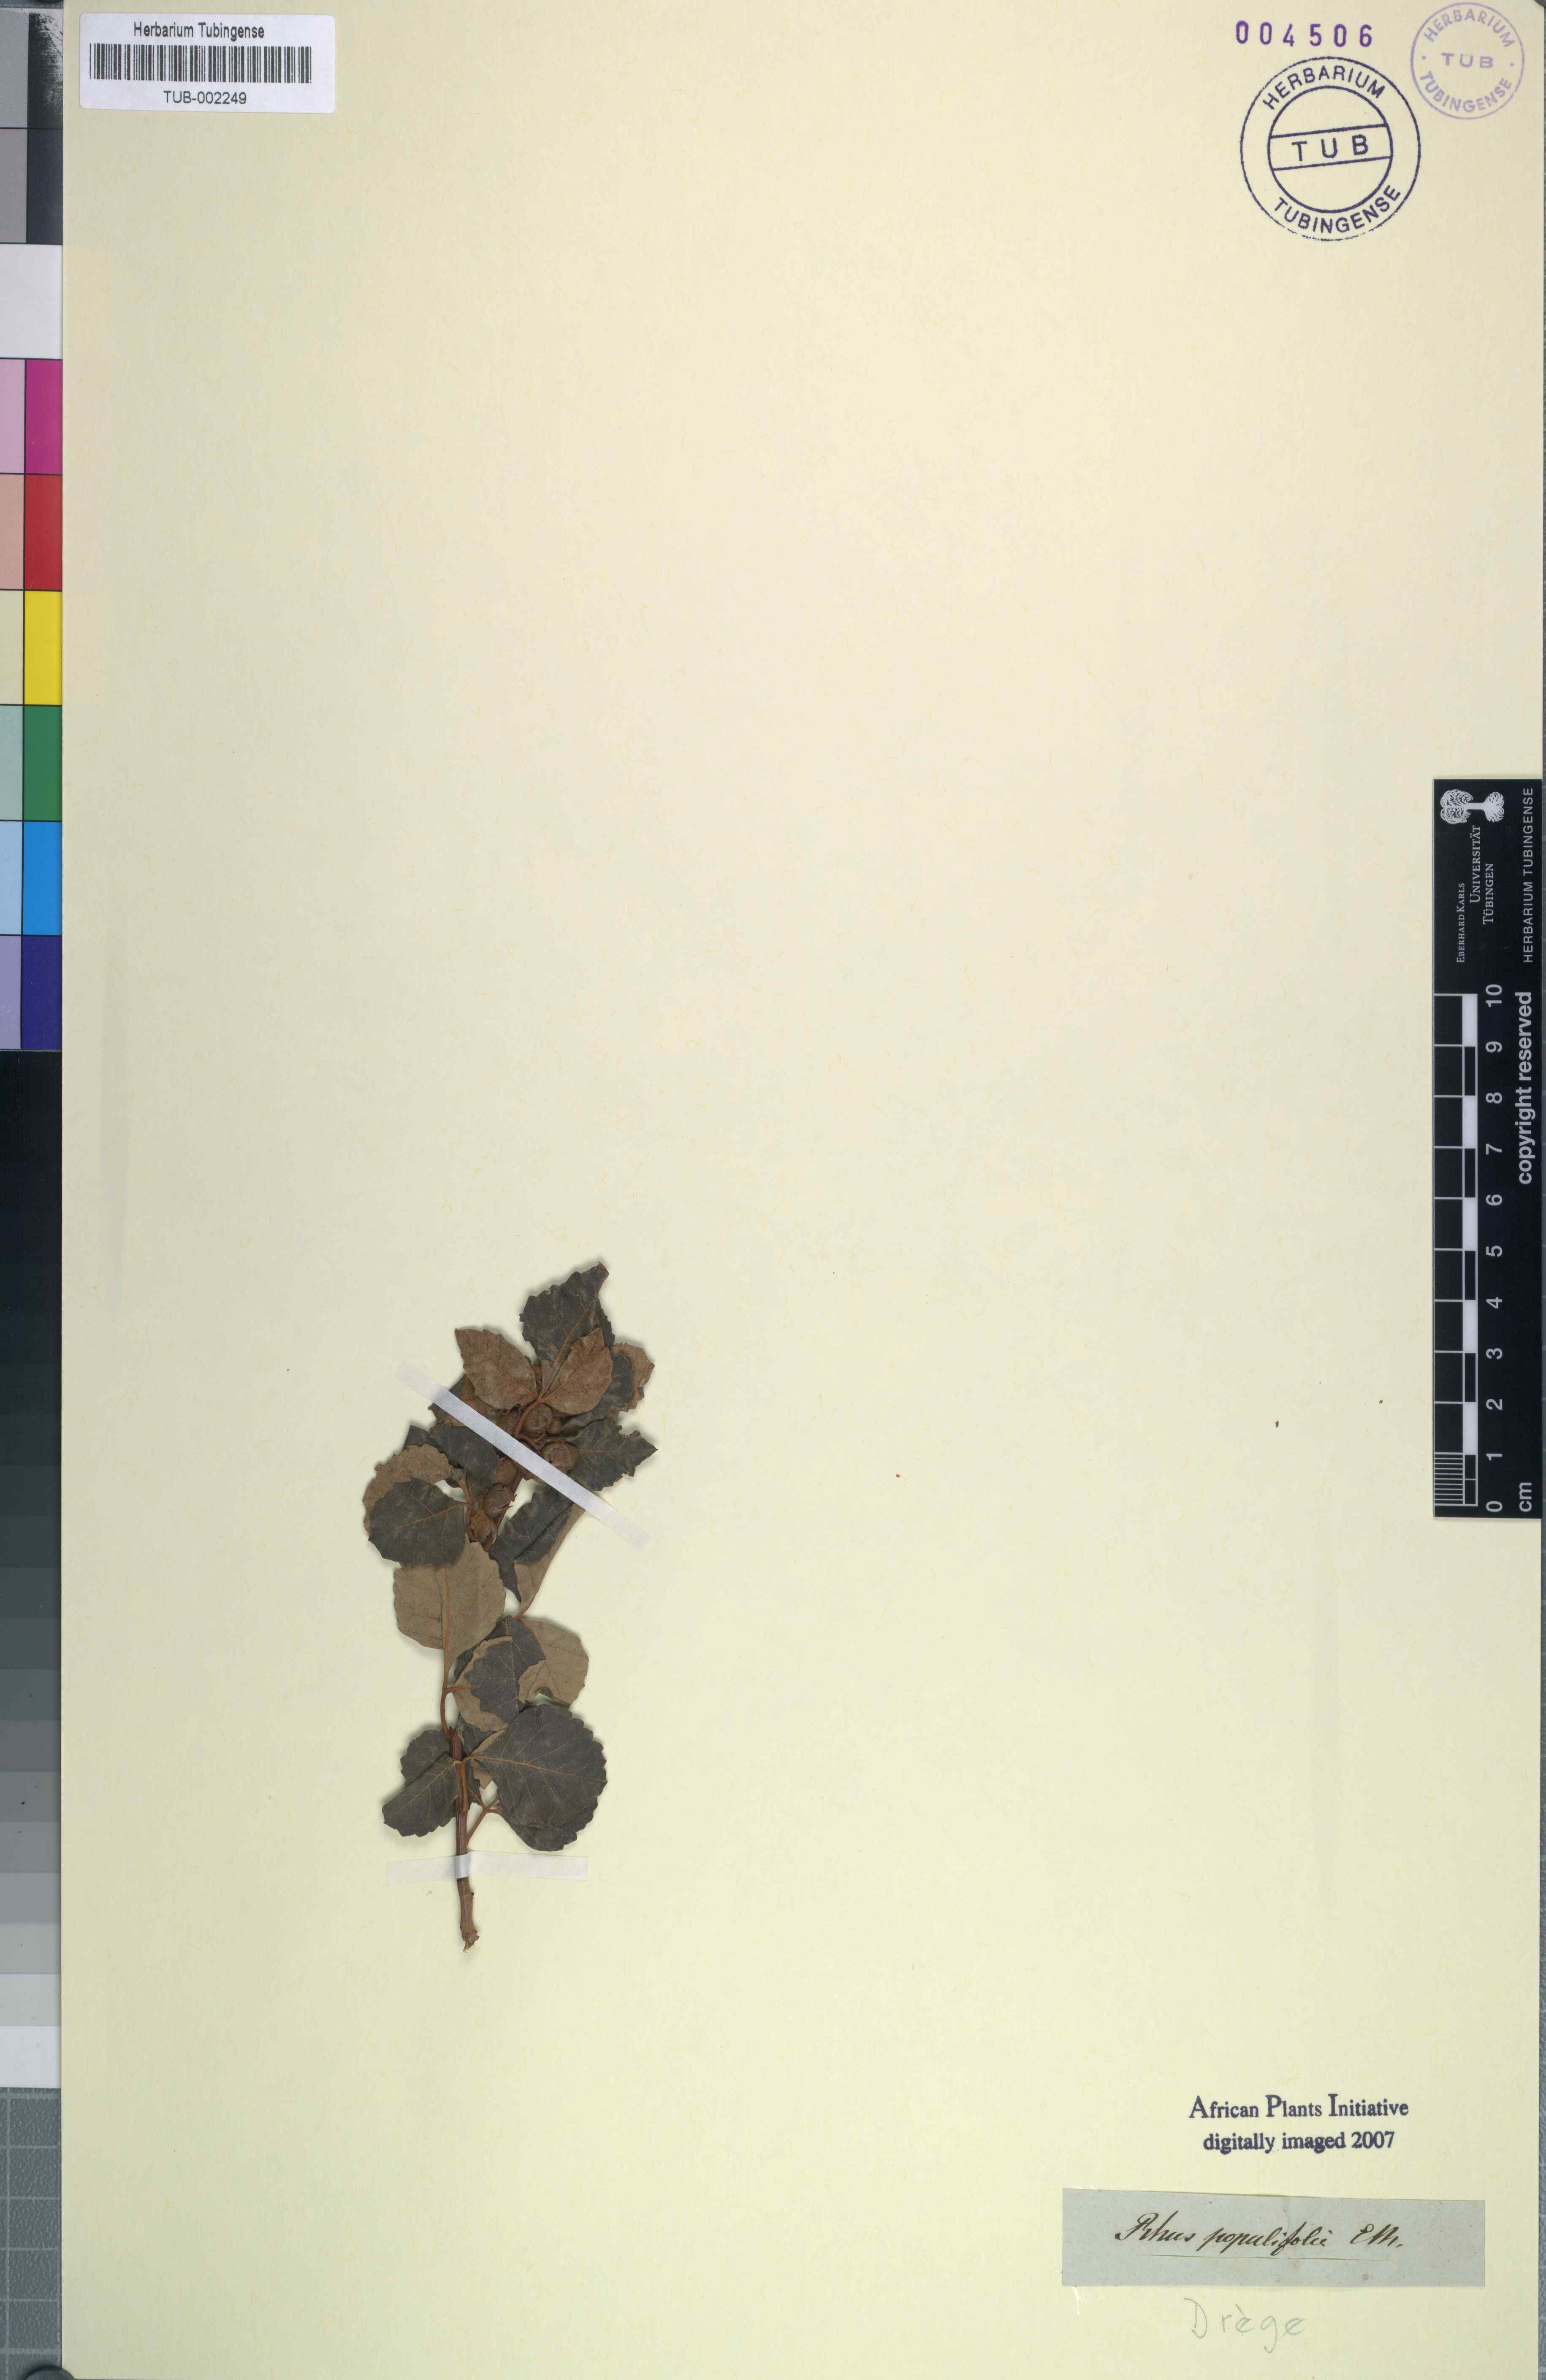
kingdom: Plantae
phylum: Tracheophyta
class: Magnoliopsida
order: Sapindales
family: Anacardiaceae
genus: Searsia
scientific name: Searsia populifolia
